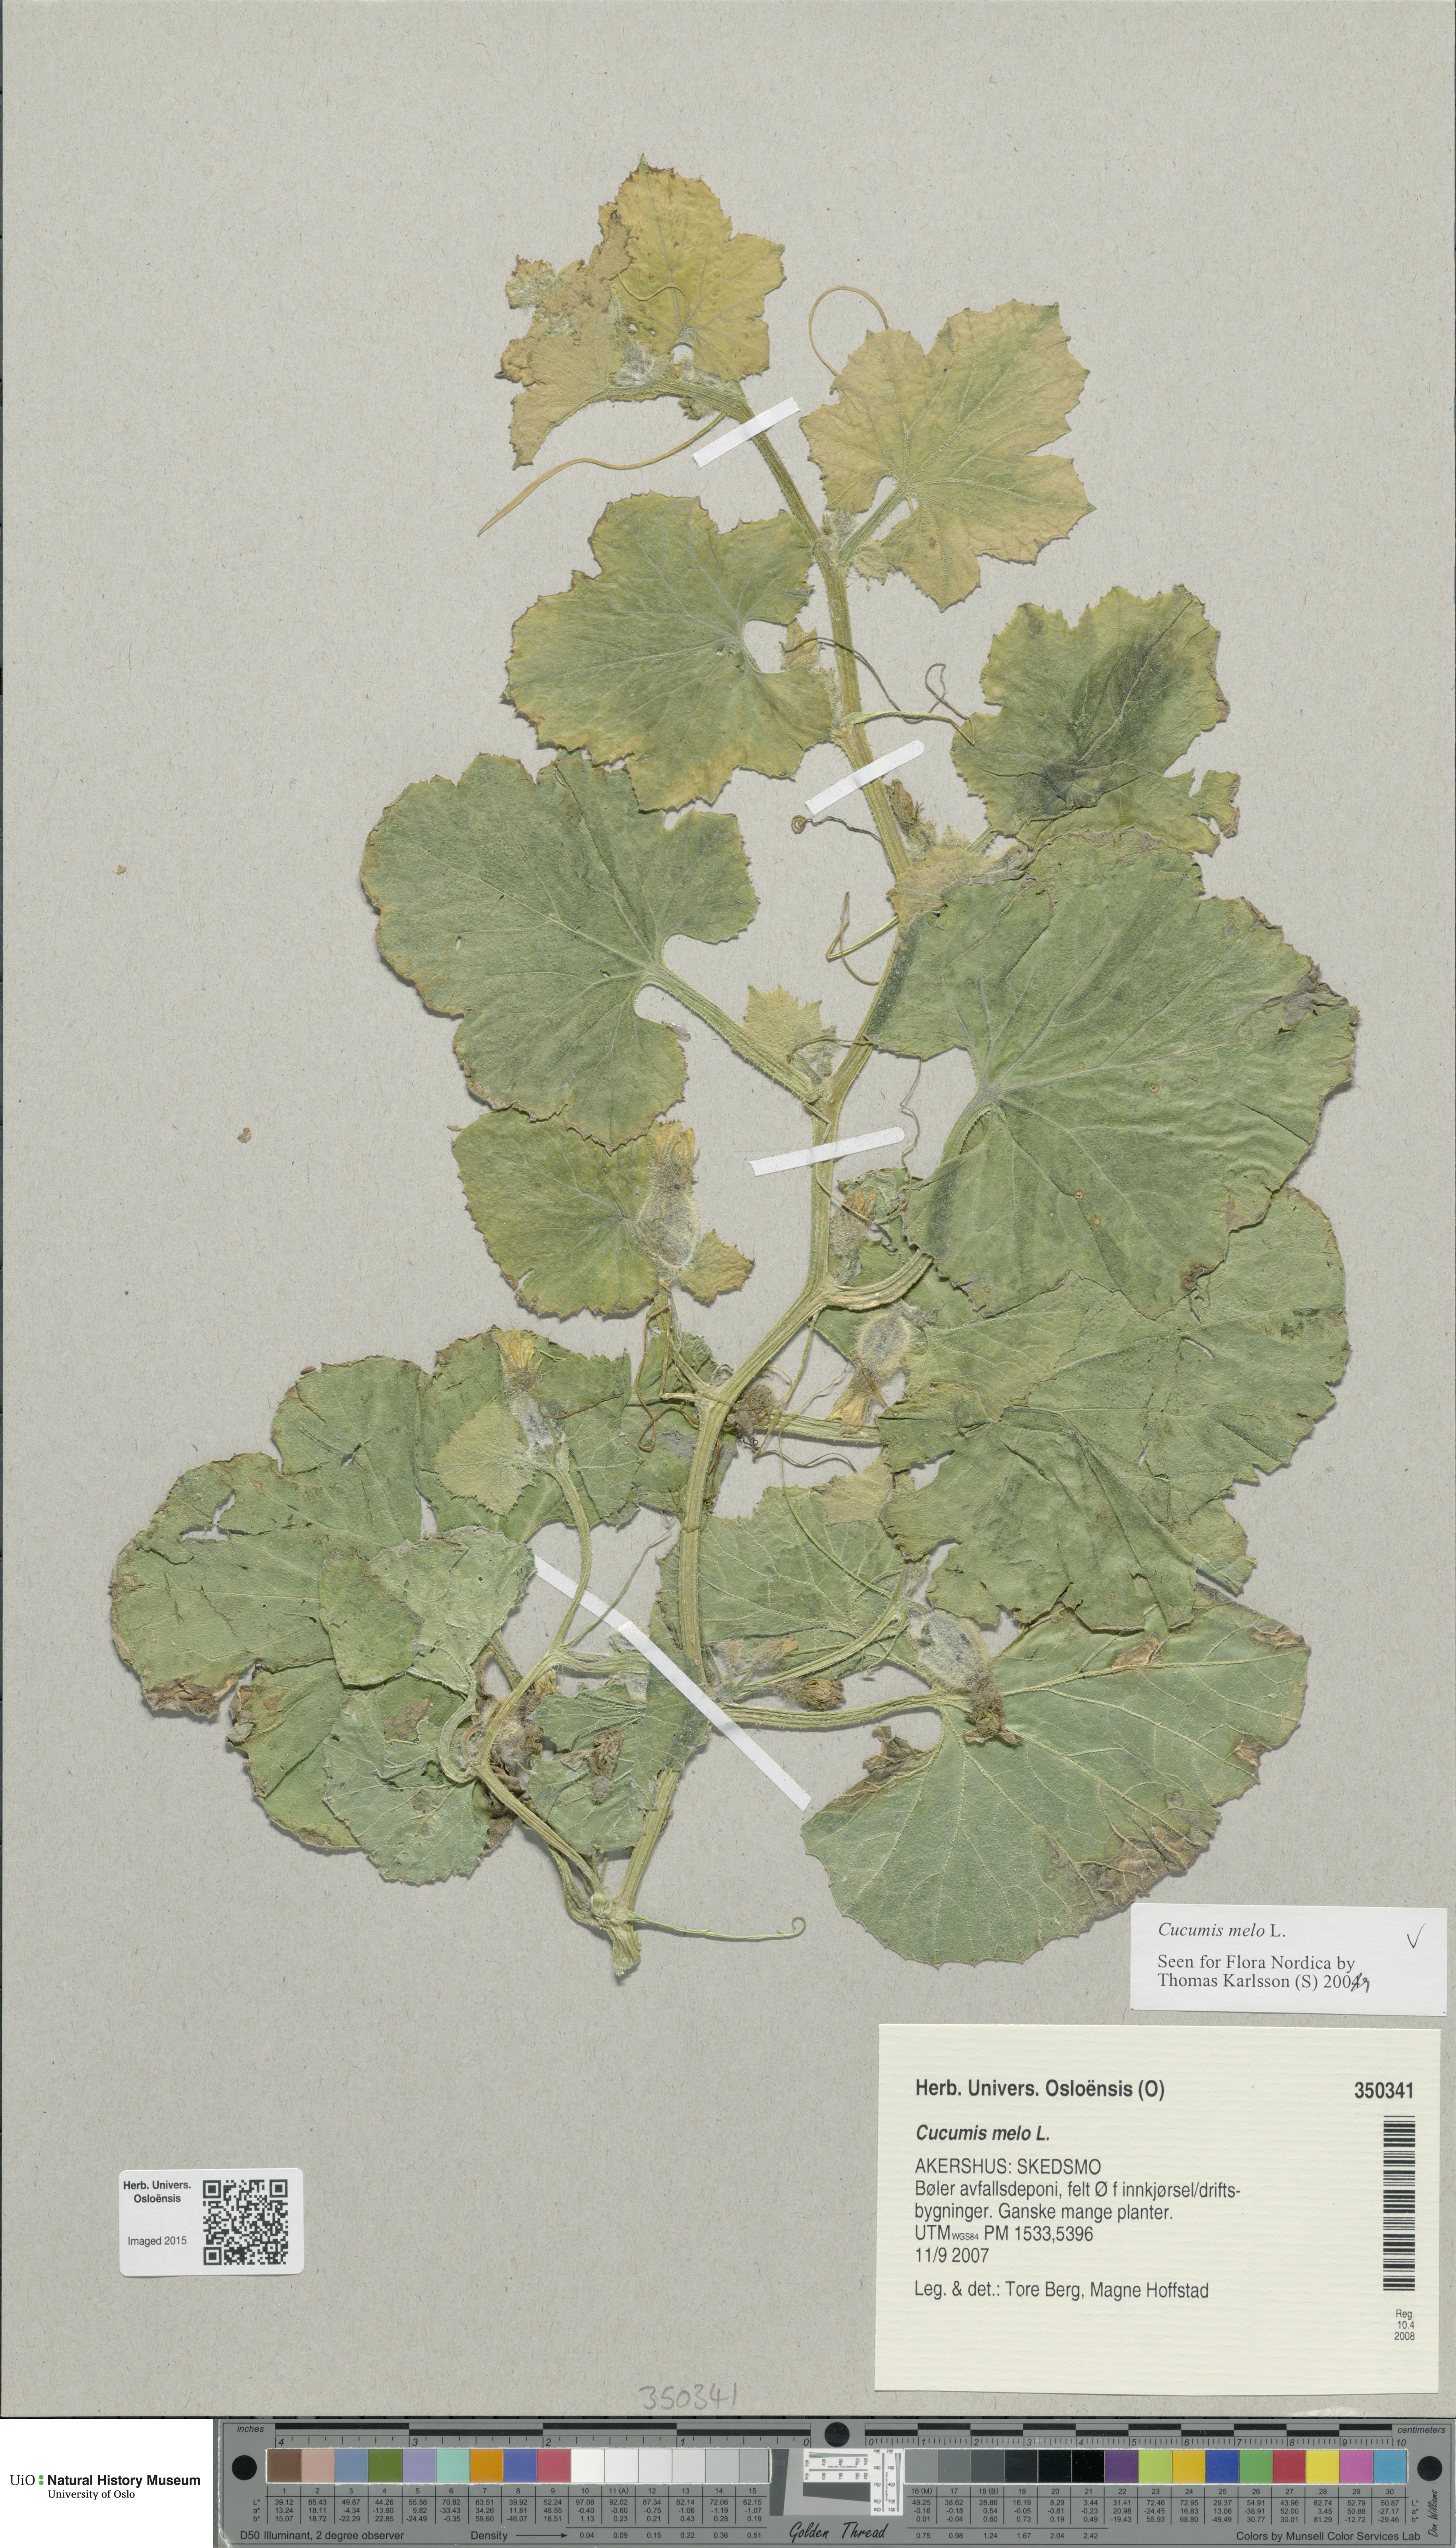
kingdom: Plantae
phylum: Tracheophyta
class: Magnoliopsida
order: Cucurbitales
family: Cucurbitaceae
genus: Cucumis
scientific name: Cucumis melo
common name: Melon
